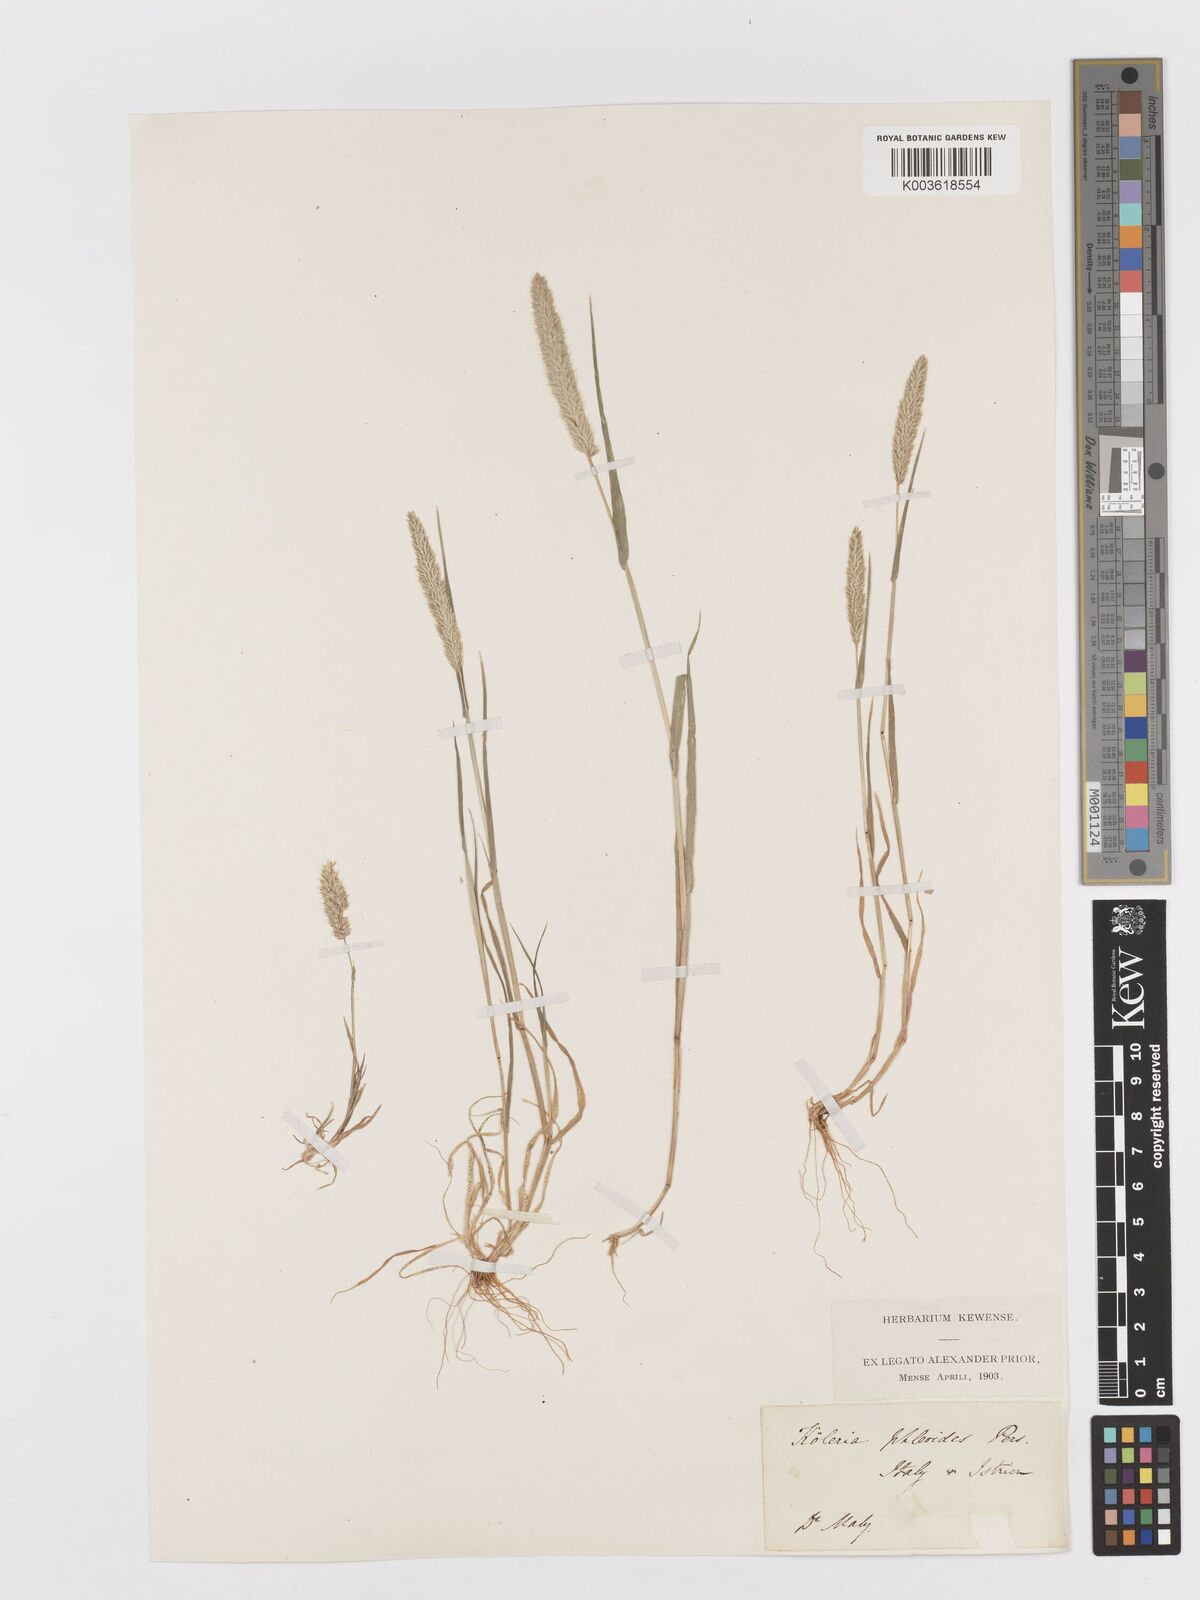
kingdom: Plantae
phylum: Tracheophyta
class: Liliopsida
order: Poales
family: Poaceae
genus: Rostraria
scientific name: Rostraria cristata
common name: Mediterranean hair-grass
